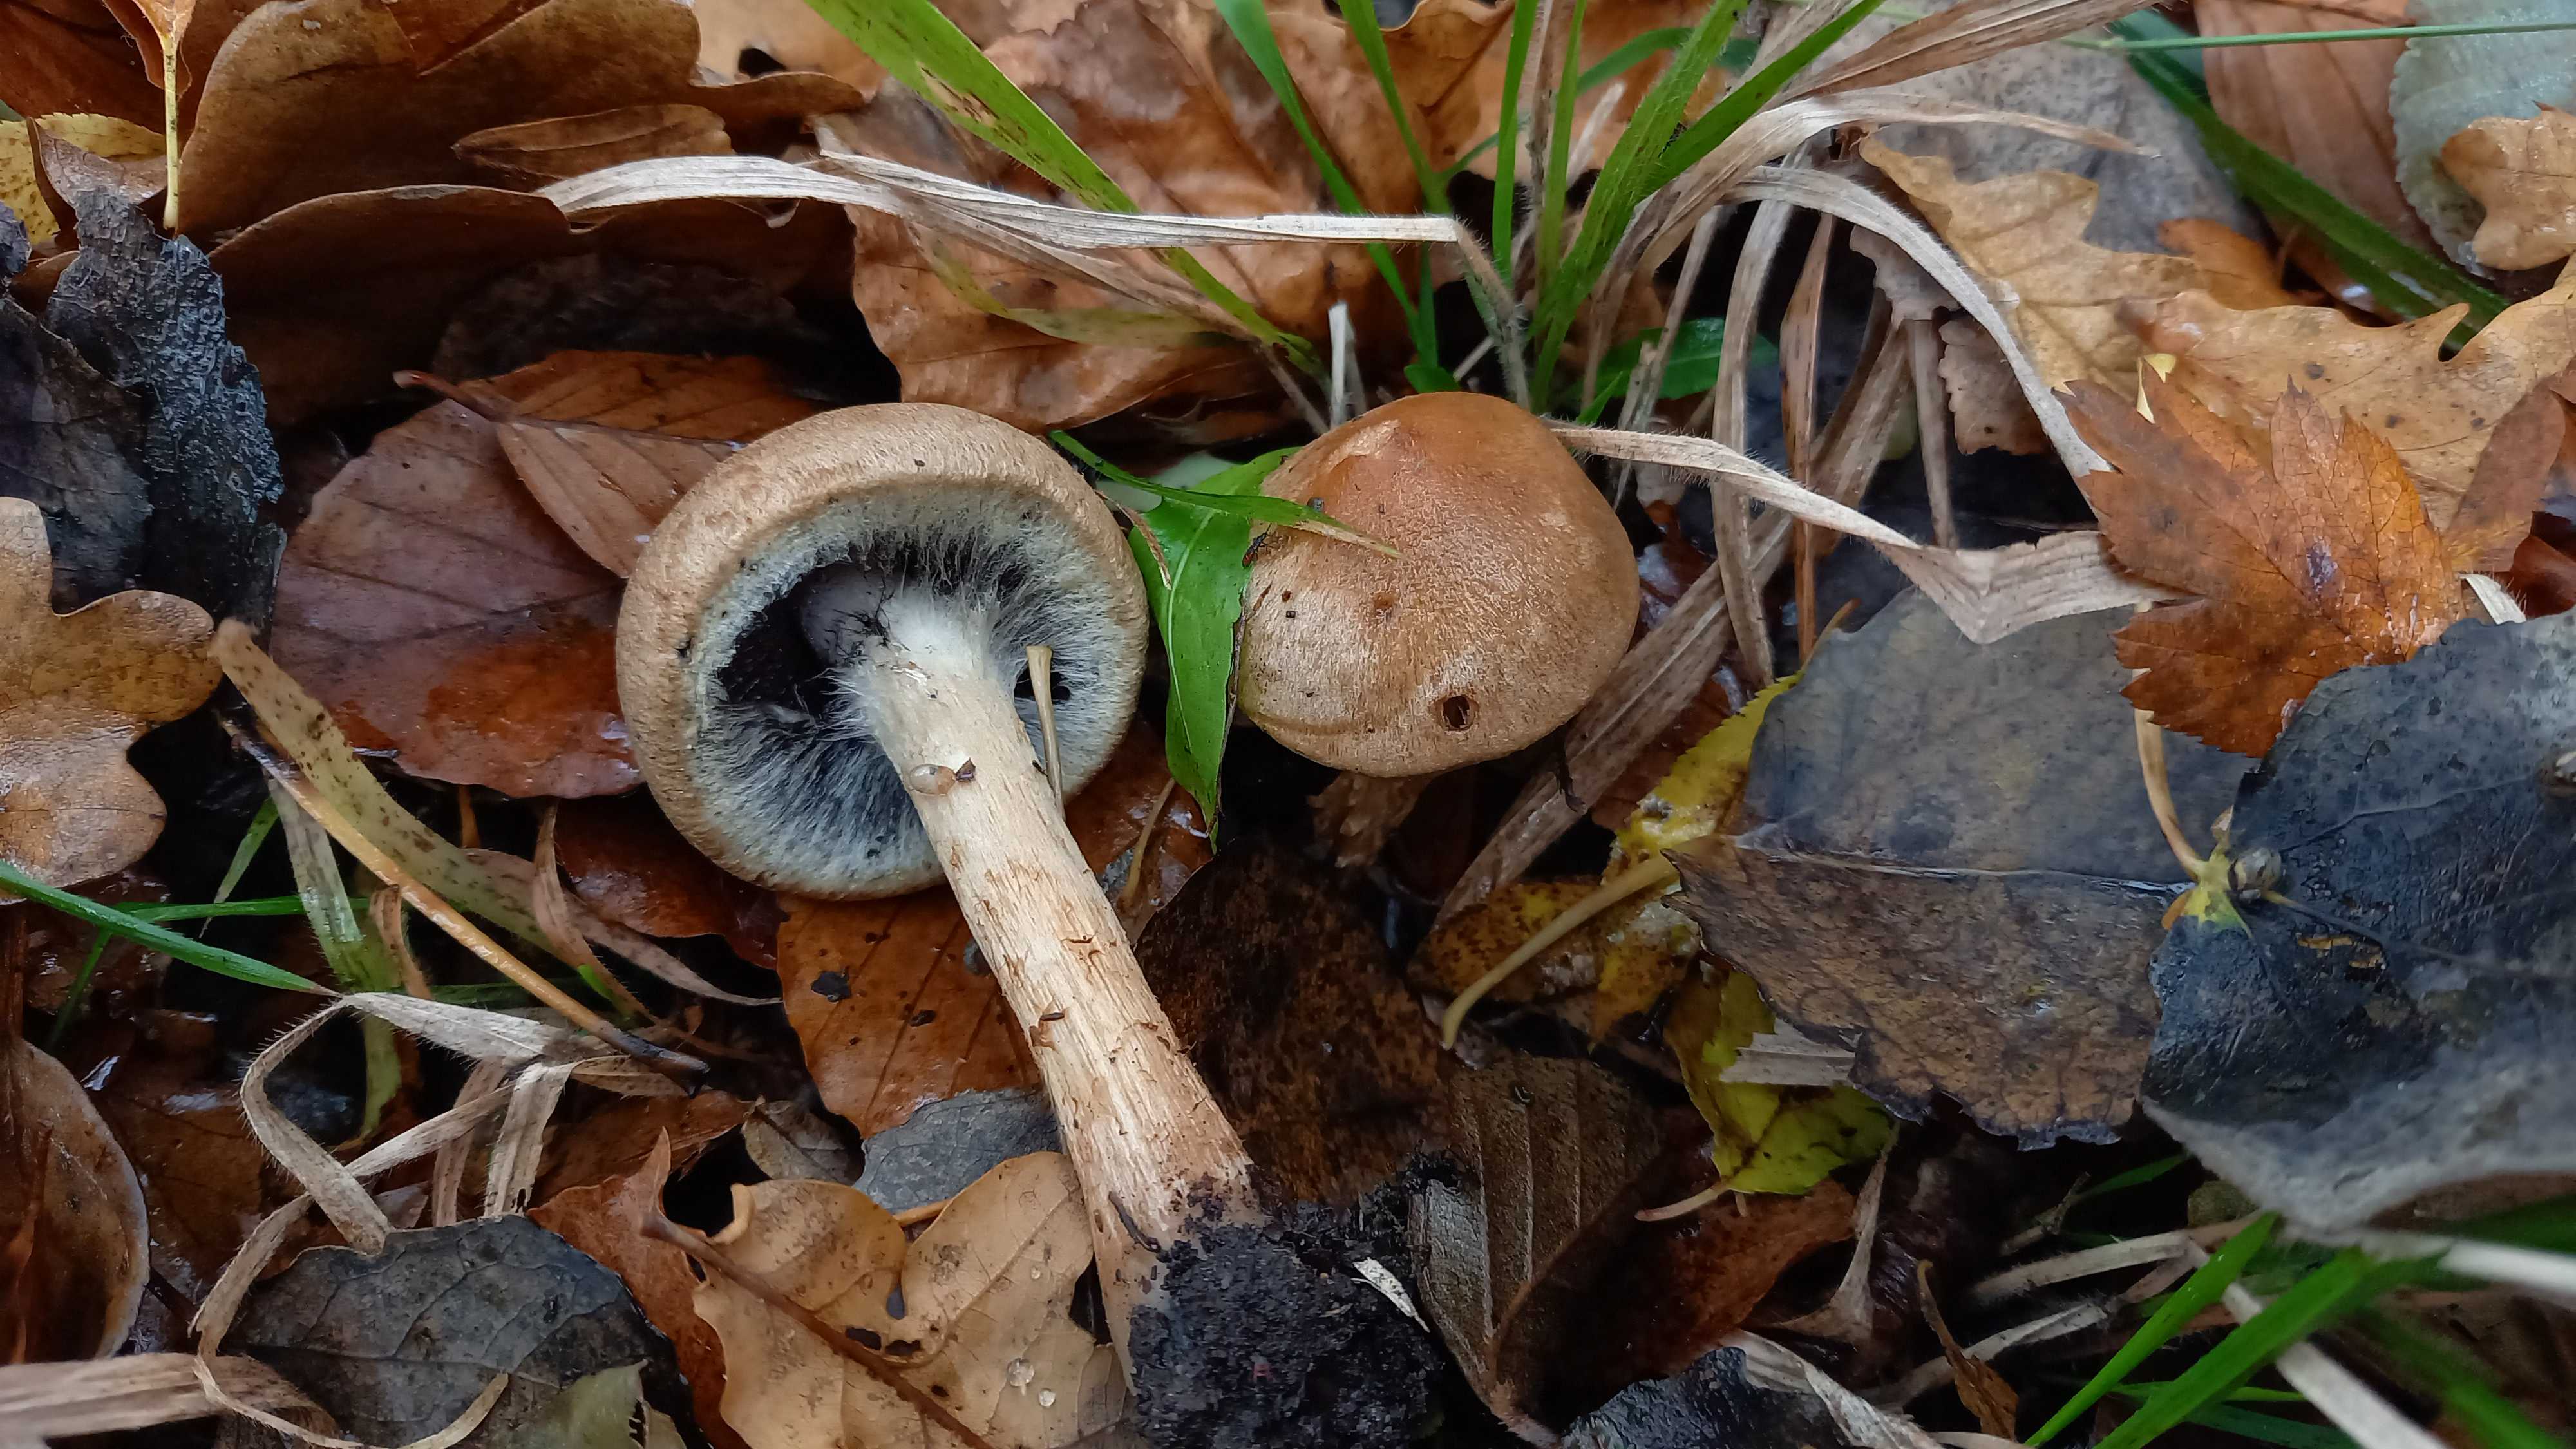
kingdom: Fungi
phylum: Basidiomycota
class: Agaricomycetes
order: Agaricales
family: Psathyrellaceae
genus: Lacrymaria
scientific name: Lacrymaria lacrymabunda
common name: grædende mørkhat
